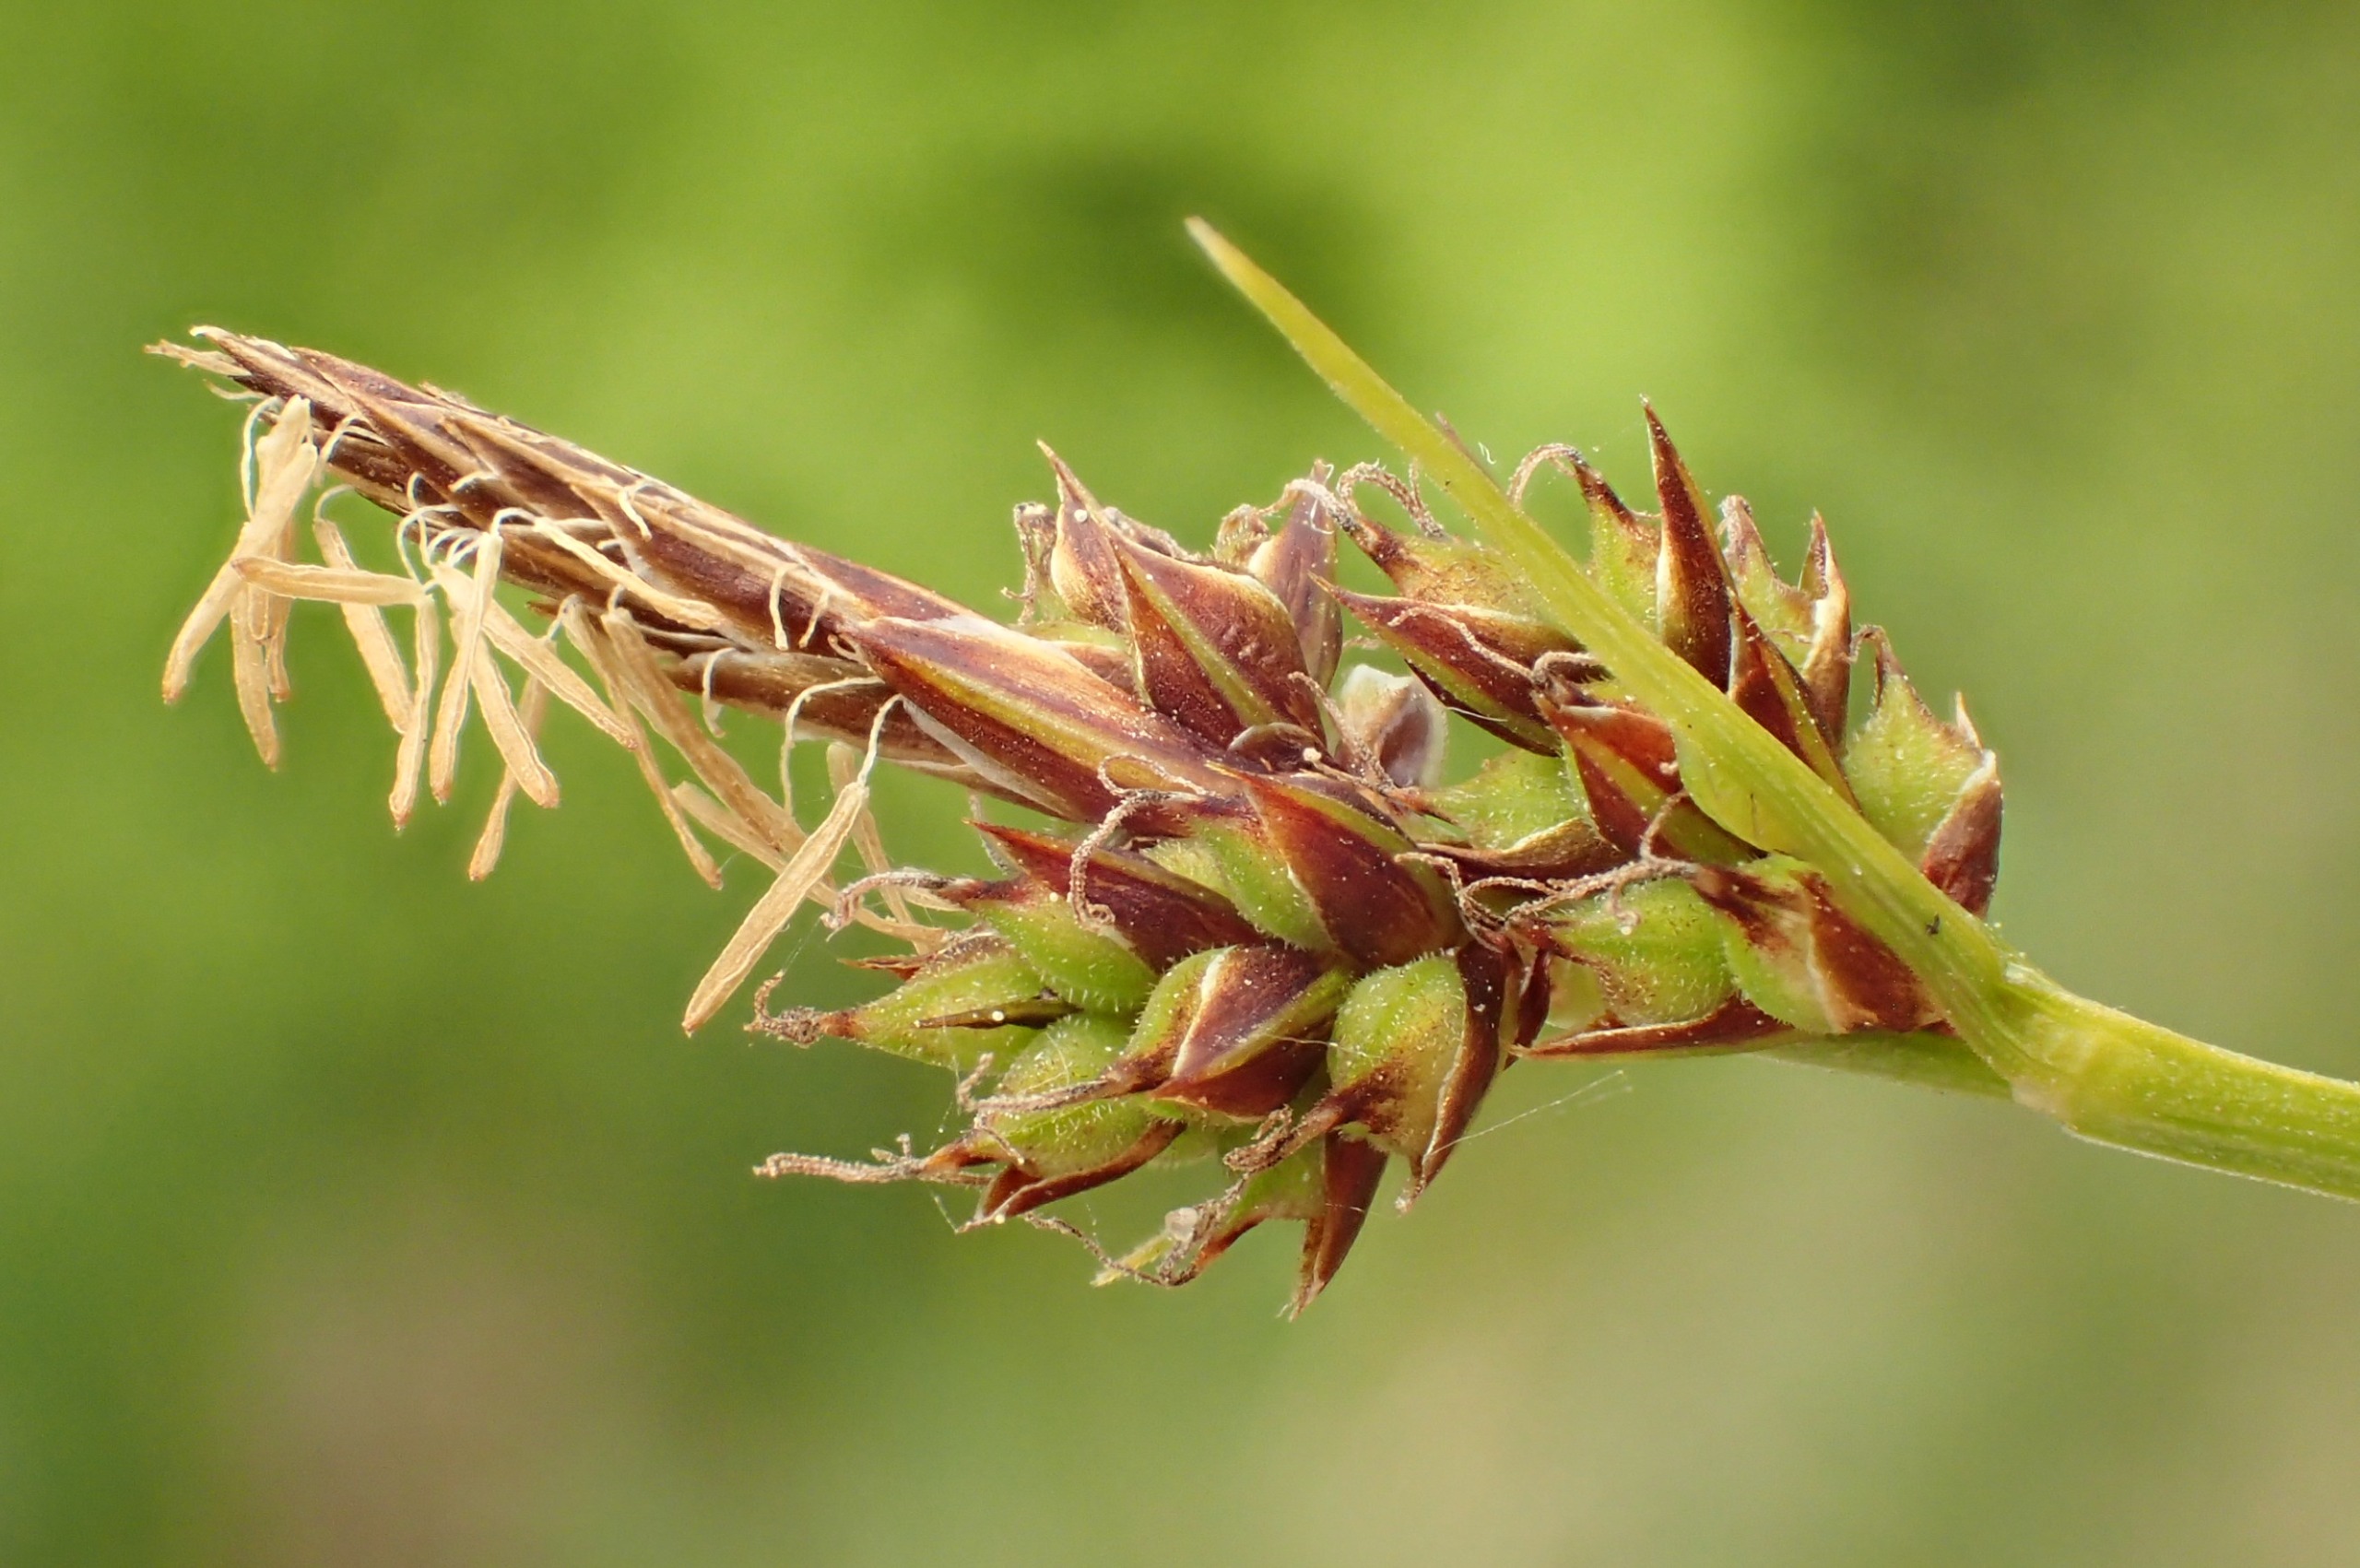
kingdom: Plantae
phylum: Tracheophyta
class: Liliopsida
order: Poales
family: Cyperaceae
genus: Carex
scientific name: Carex pilulifera
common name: Pille-star
